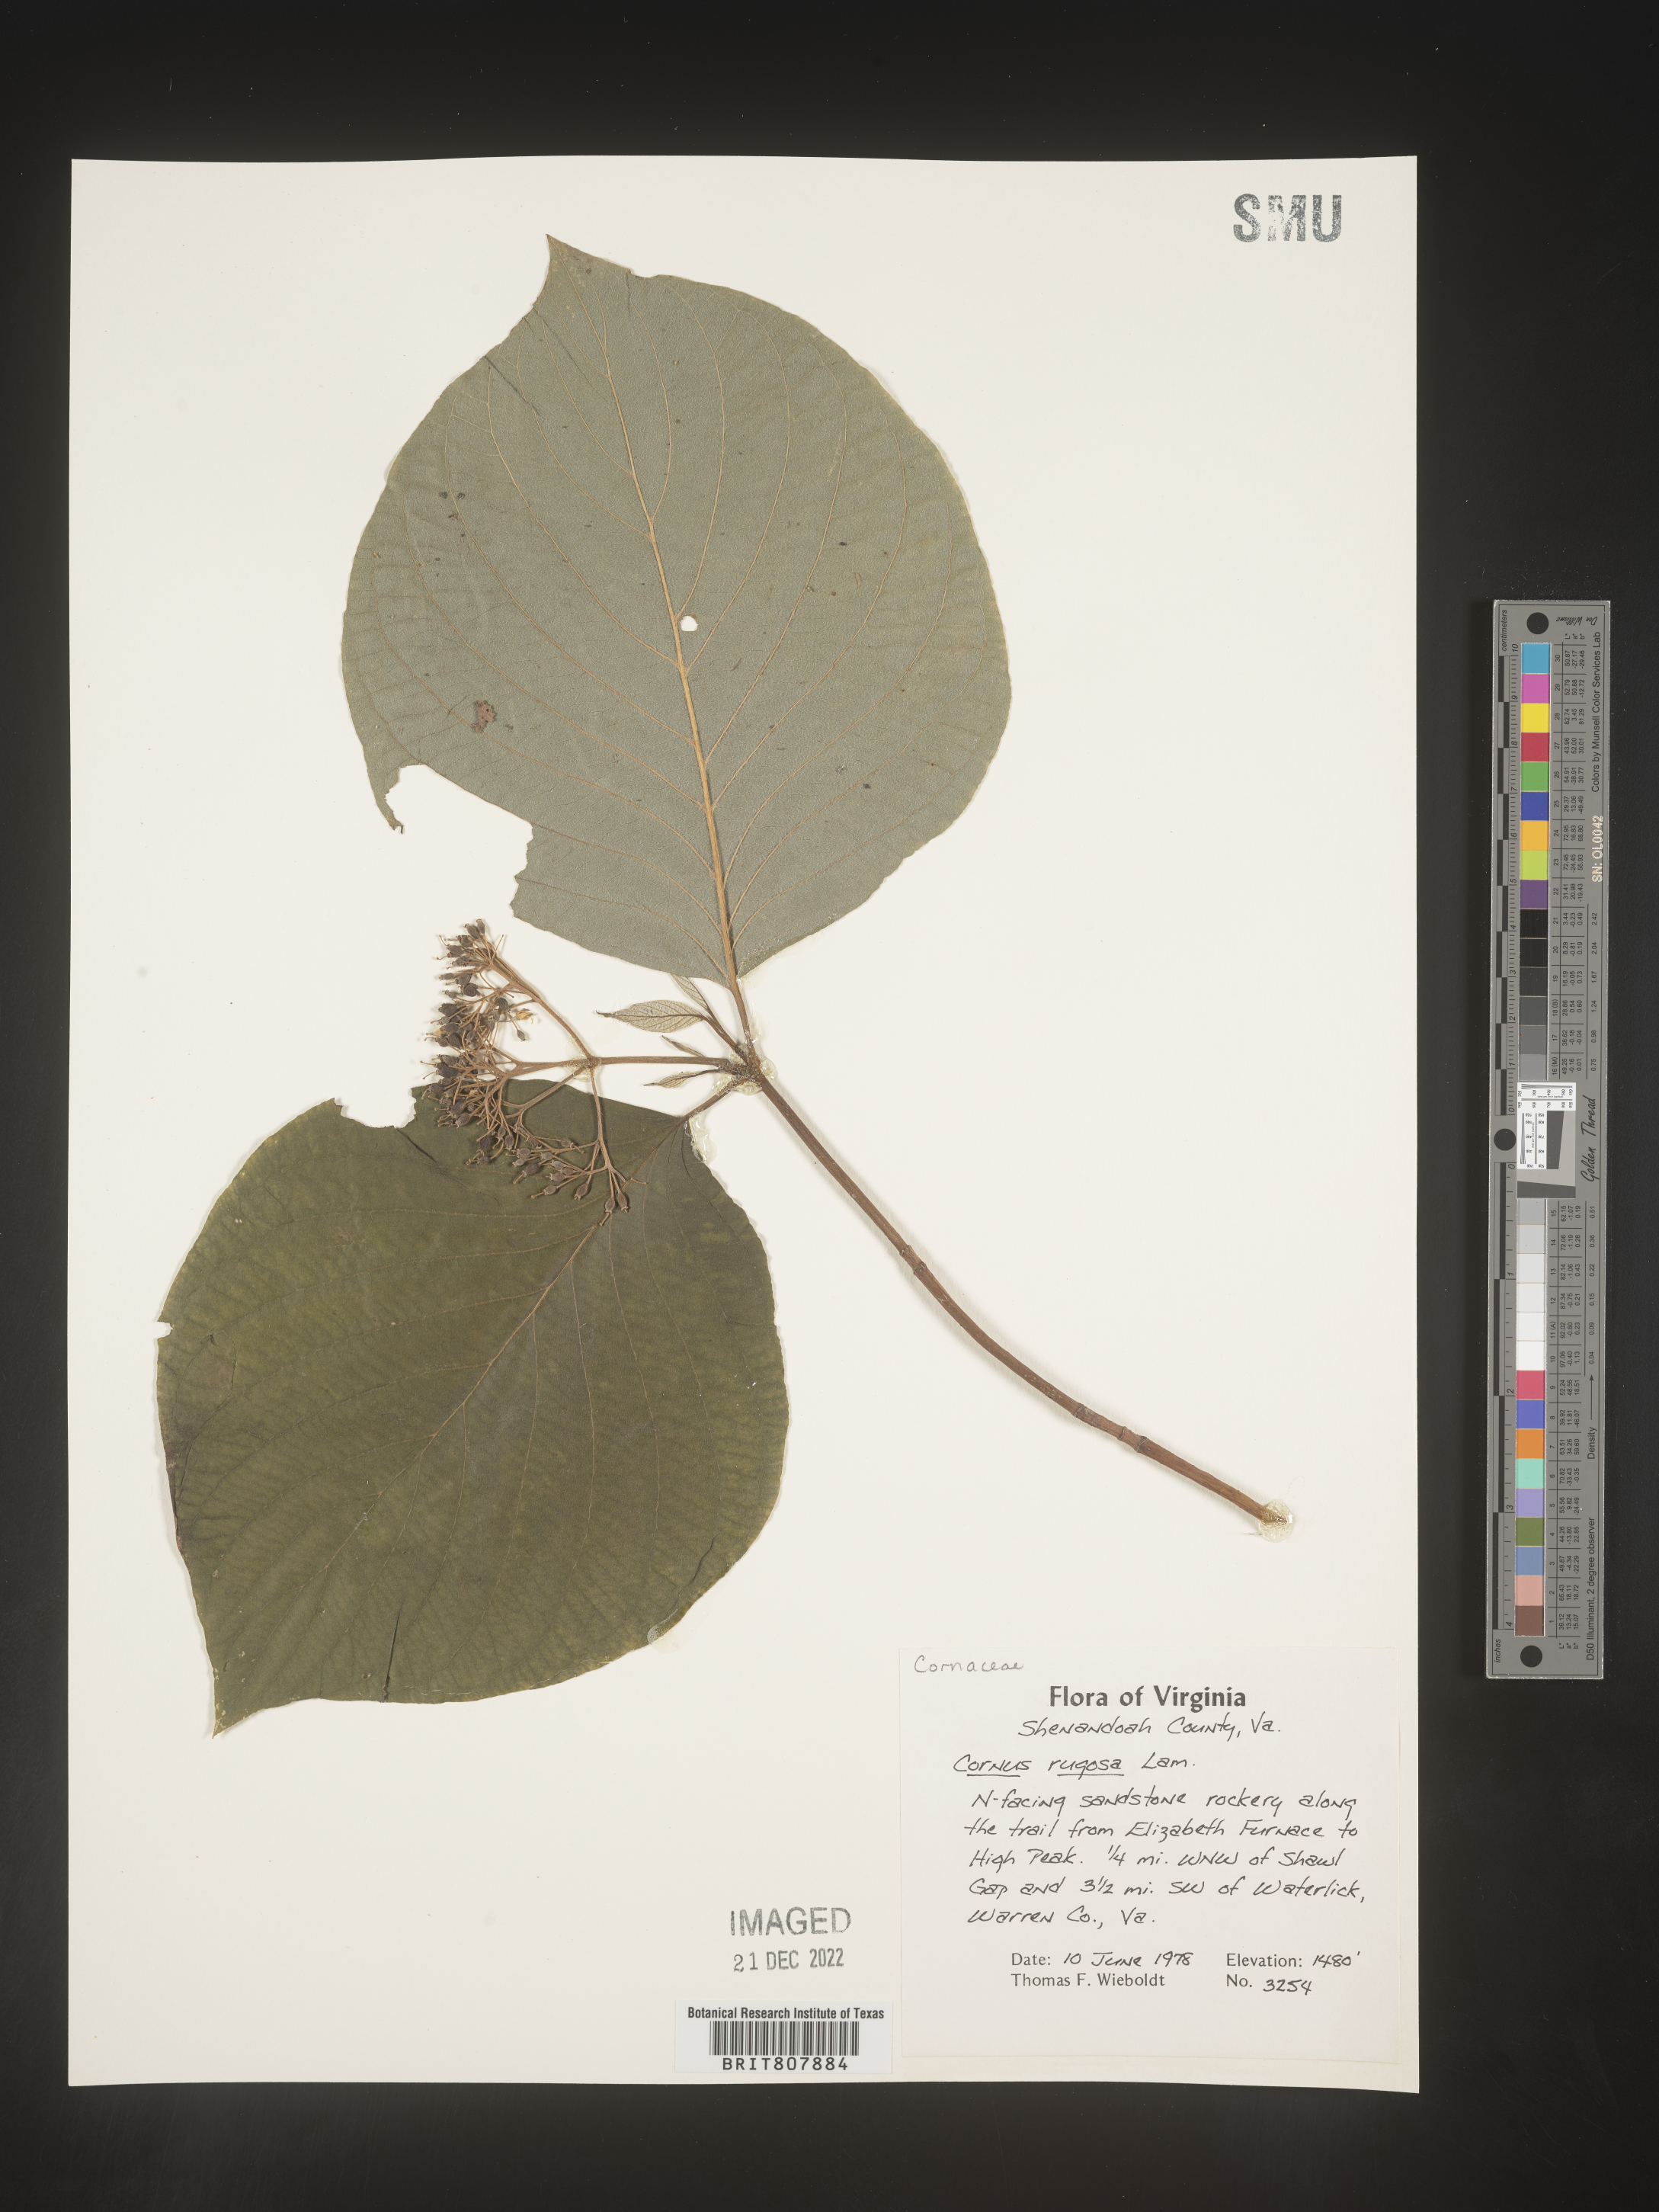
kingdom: Plantae
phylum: Tracheophyta
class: Magnoliopsida
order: Cornales
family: Cornaceae
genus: Cornus
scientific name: Cornus rugosa
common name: Round-leaf dogwood
